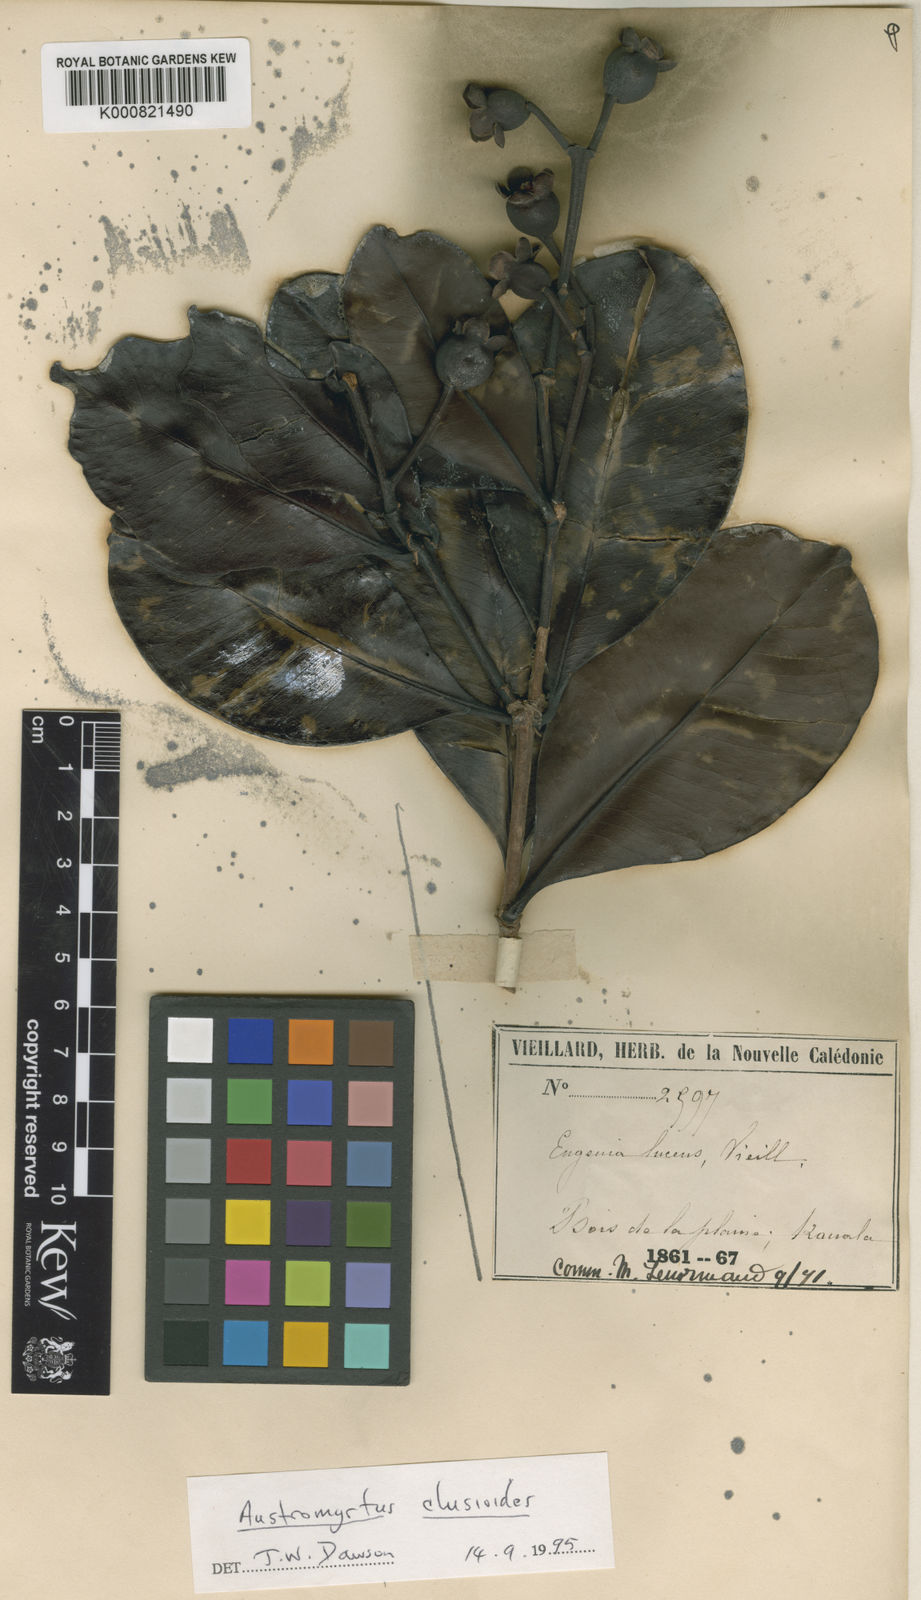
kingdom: Plantae
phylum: Tracheophyta
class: Magnoliopsida
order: Myrtales
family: Myrtaceae
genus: Gossia
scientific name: Gossia clusioides
